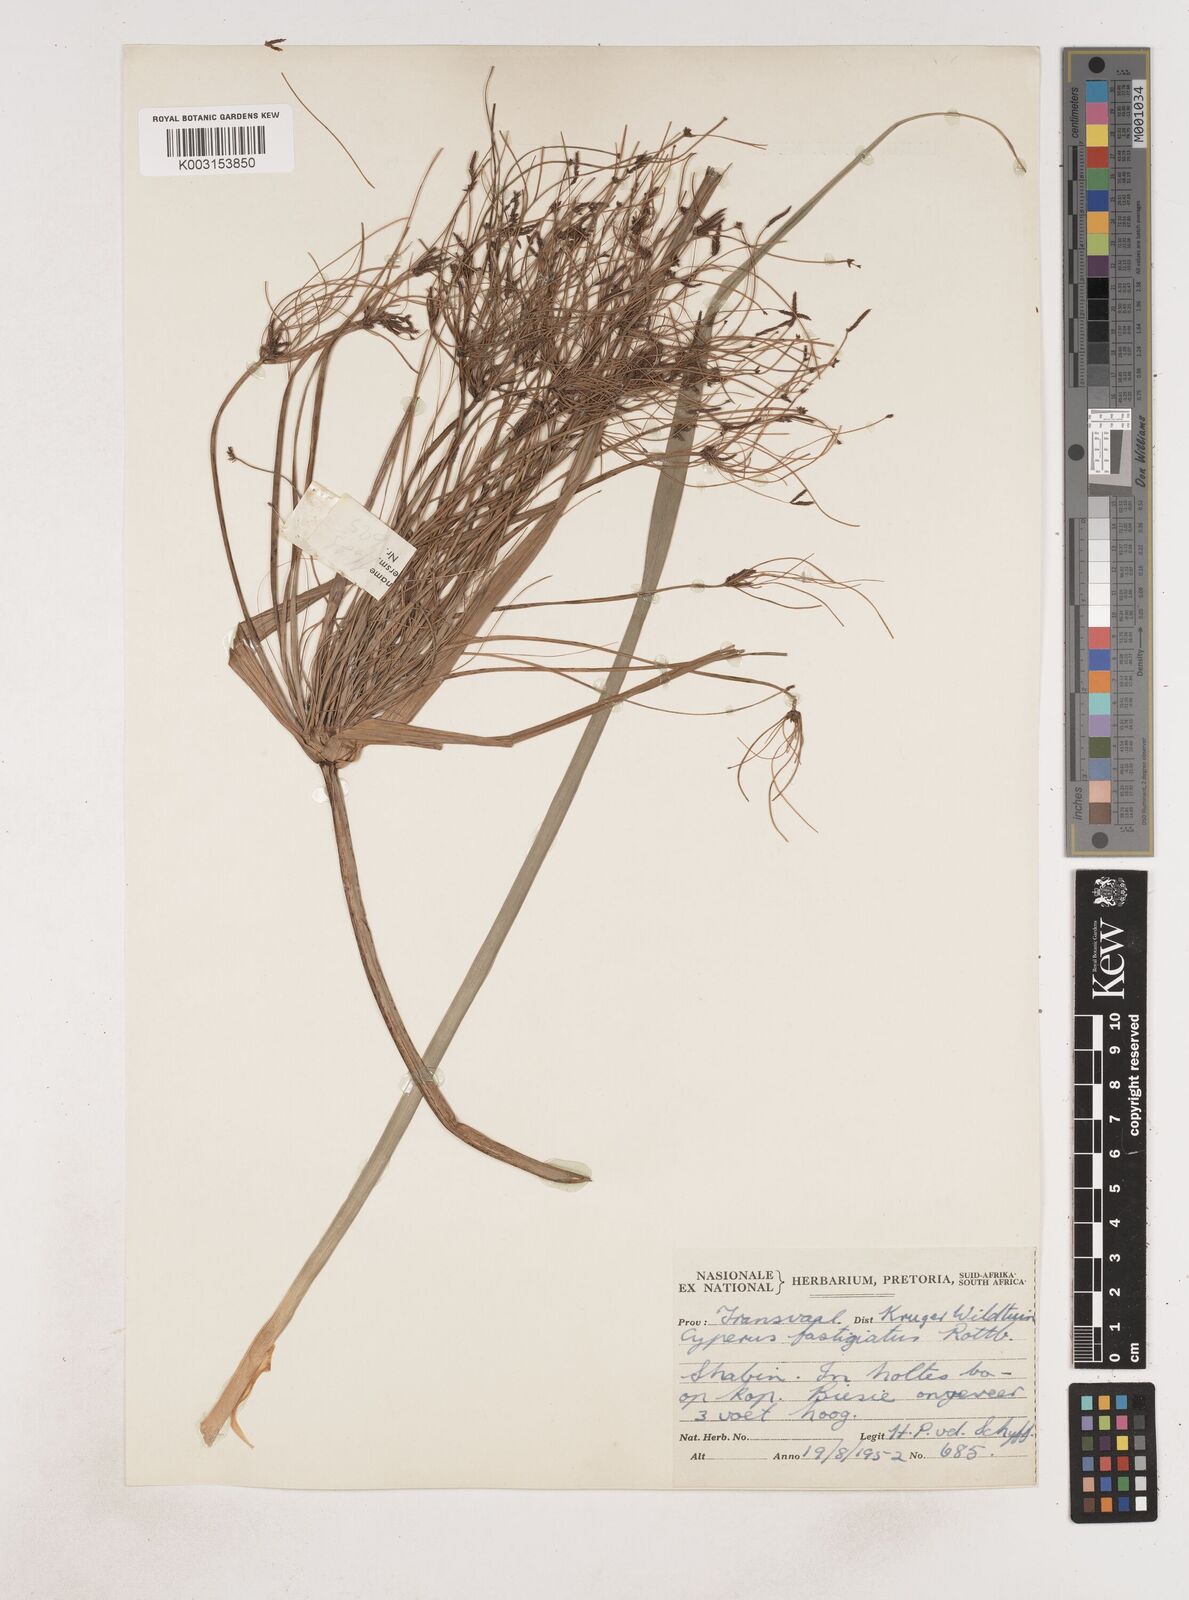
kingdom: Plantae
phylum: Tracheophyta
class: Liliopsida
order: Poales
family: Cyperaceae
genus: Cyperus
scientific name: Cyperus
